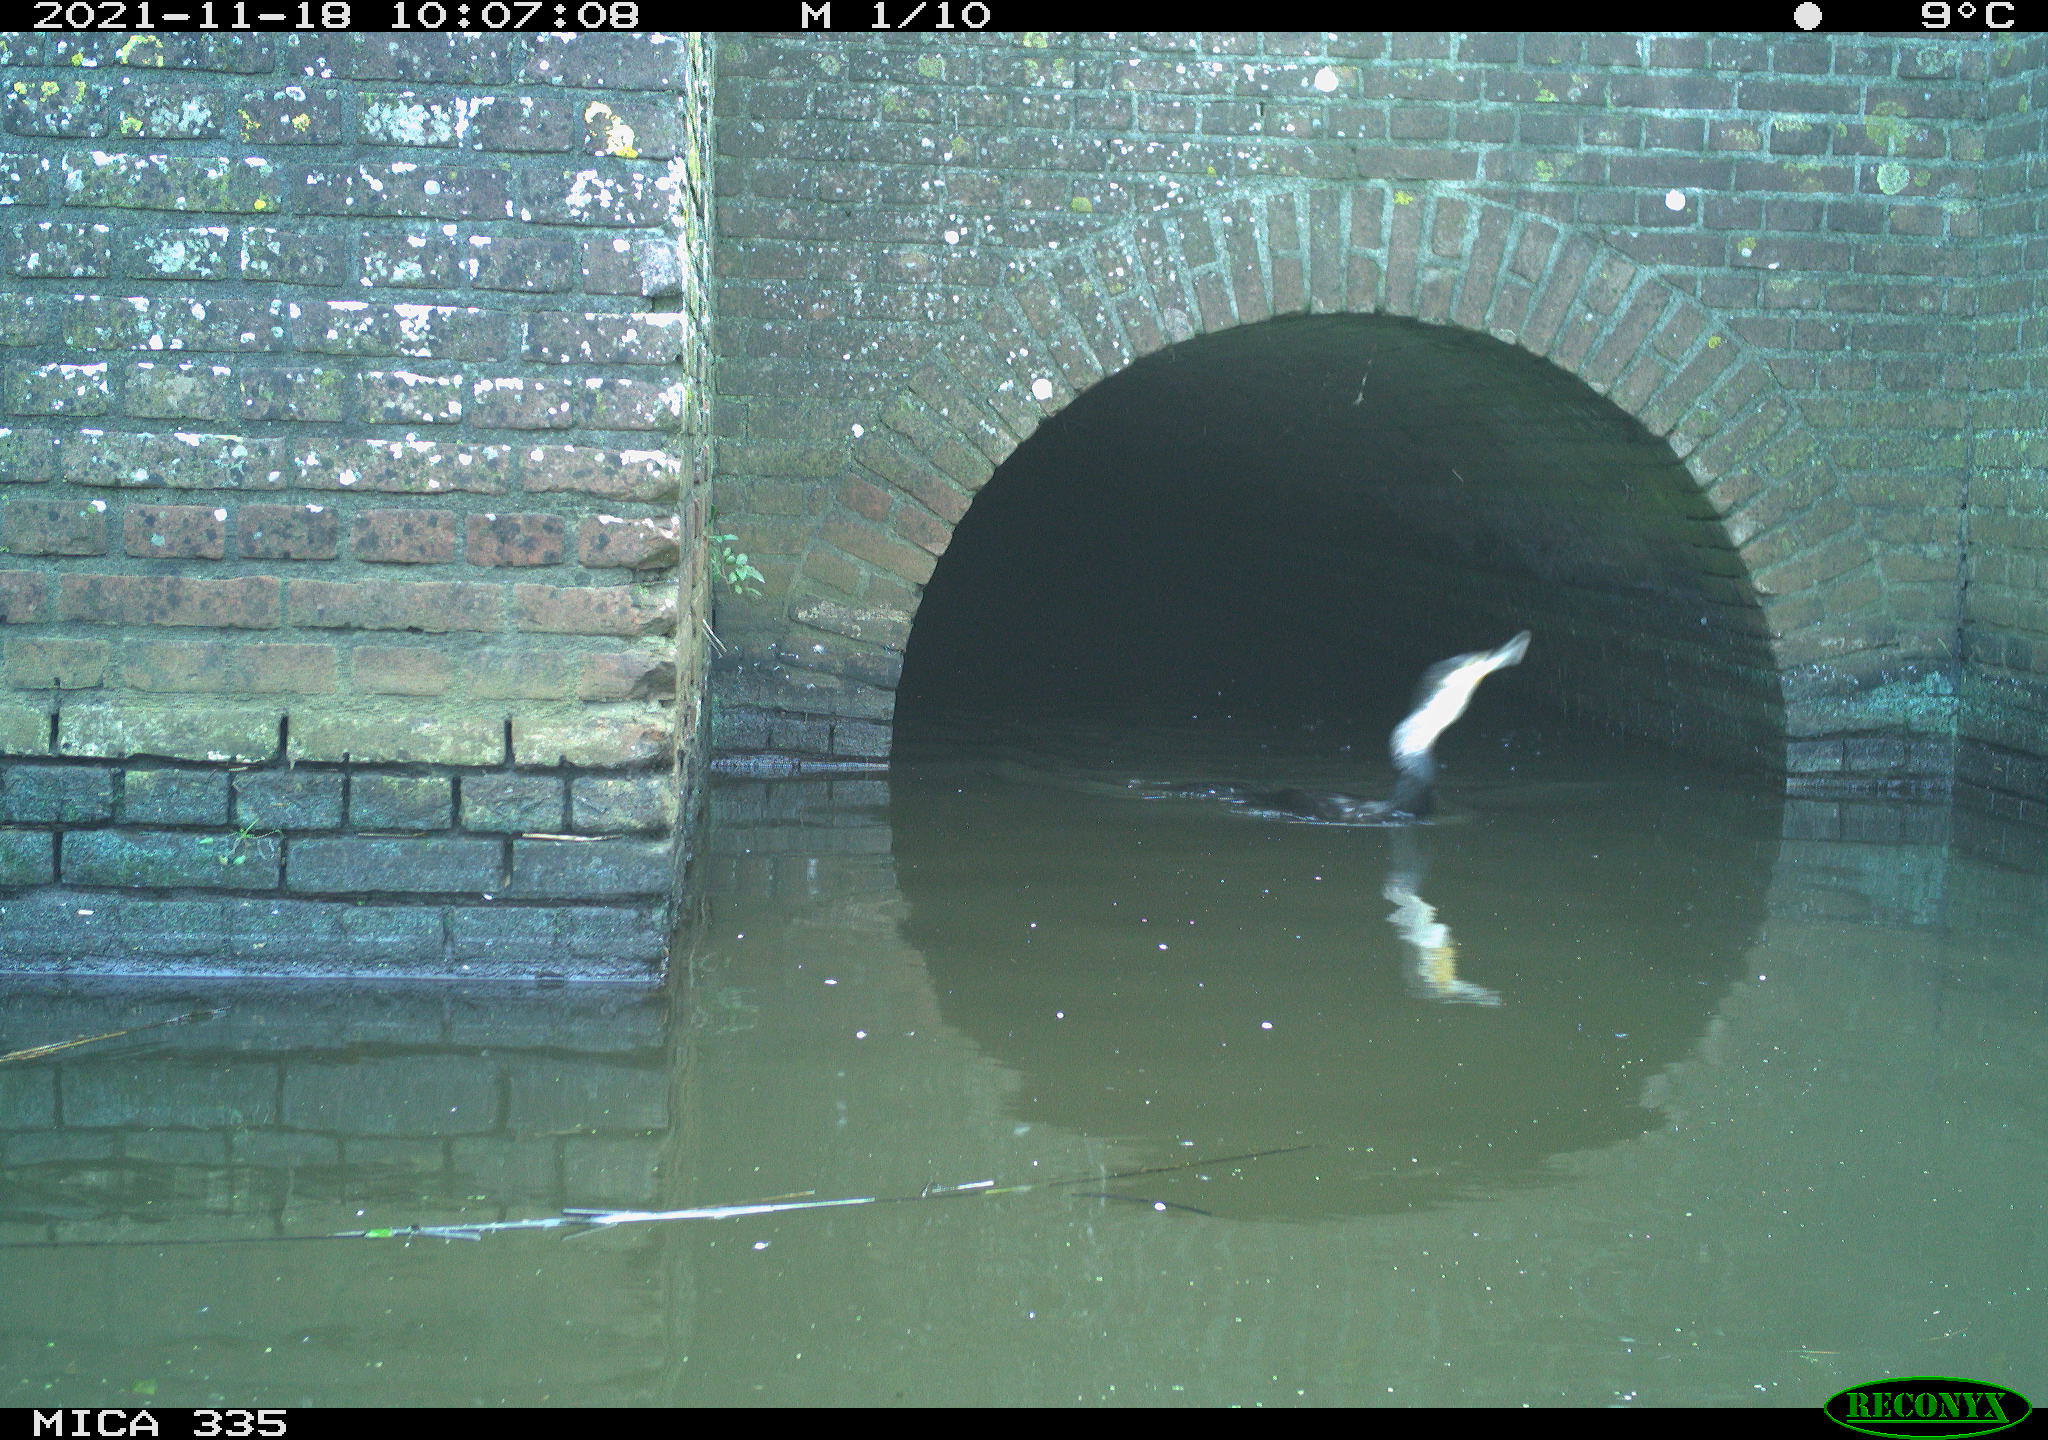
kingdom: Animalia
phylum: Chordata
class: Aves
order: Suliformes
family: Phalacrocoracidae
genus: Phalacrocorax
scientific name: Phalacrocorax carbo
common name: Great cormorant
